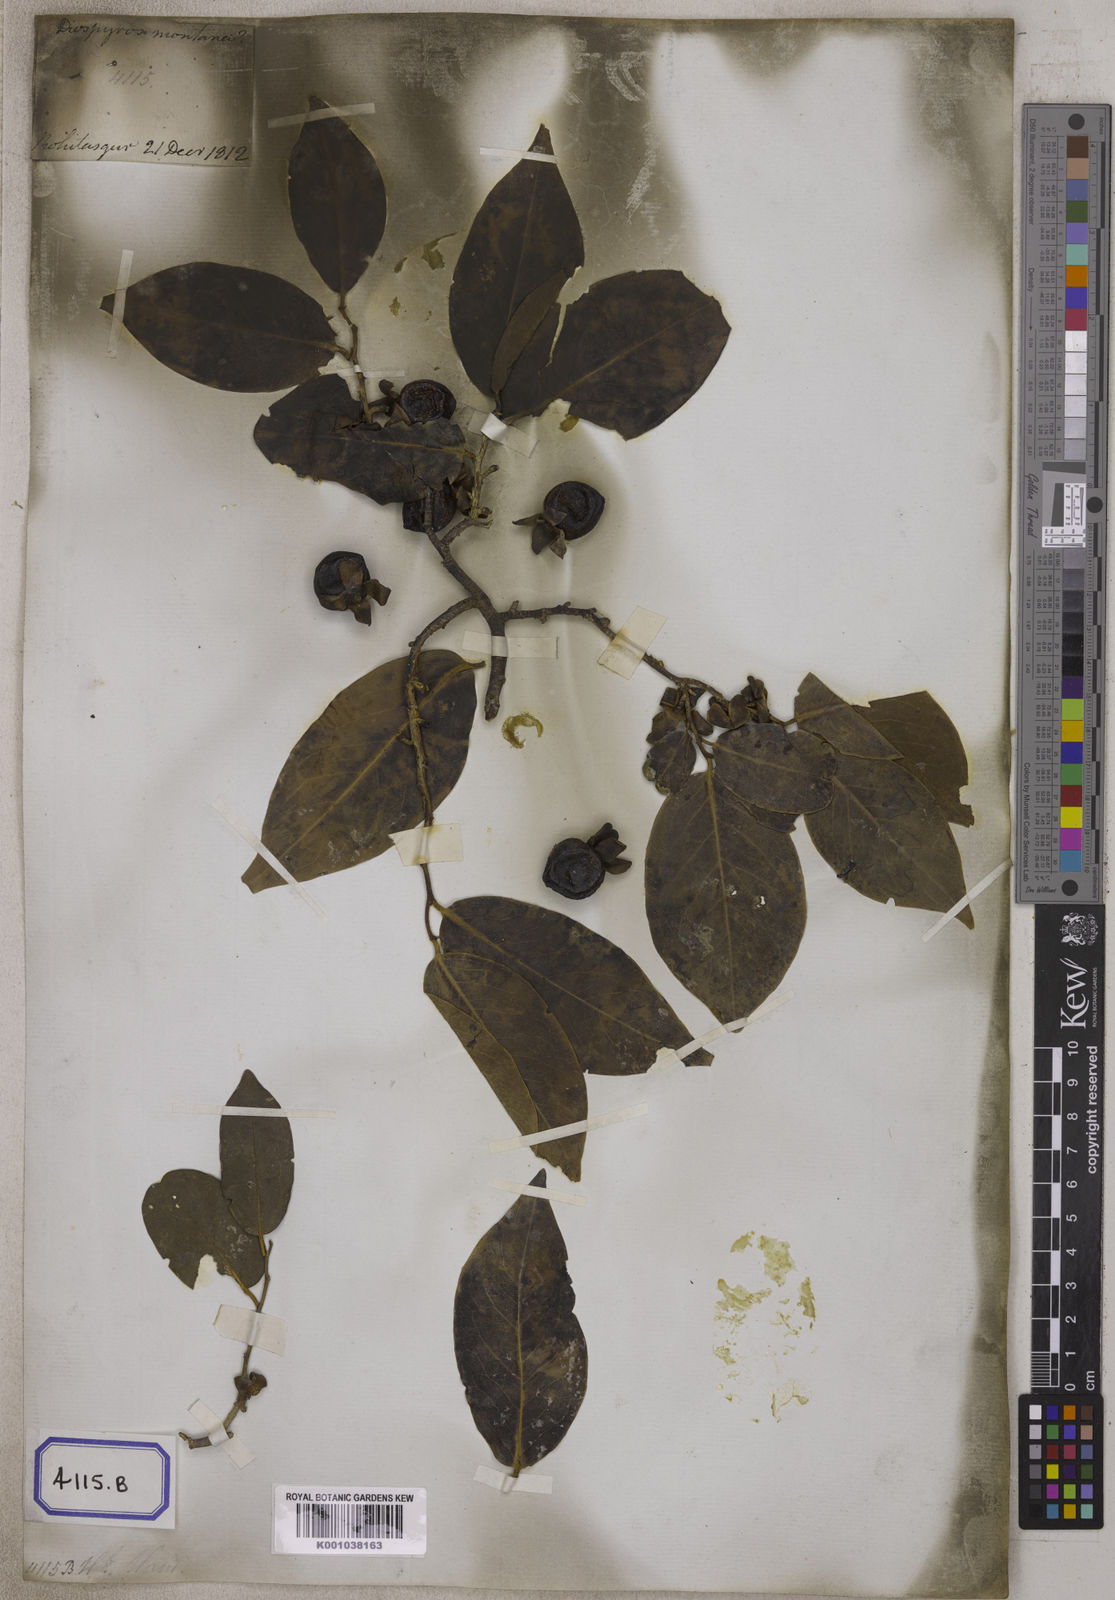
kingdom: Plantae
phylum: Tracheophyta
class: Magnoliopsida
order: Ericales
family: Ebenaceae
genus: Diospyros
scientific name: Diospyros
